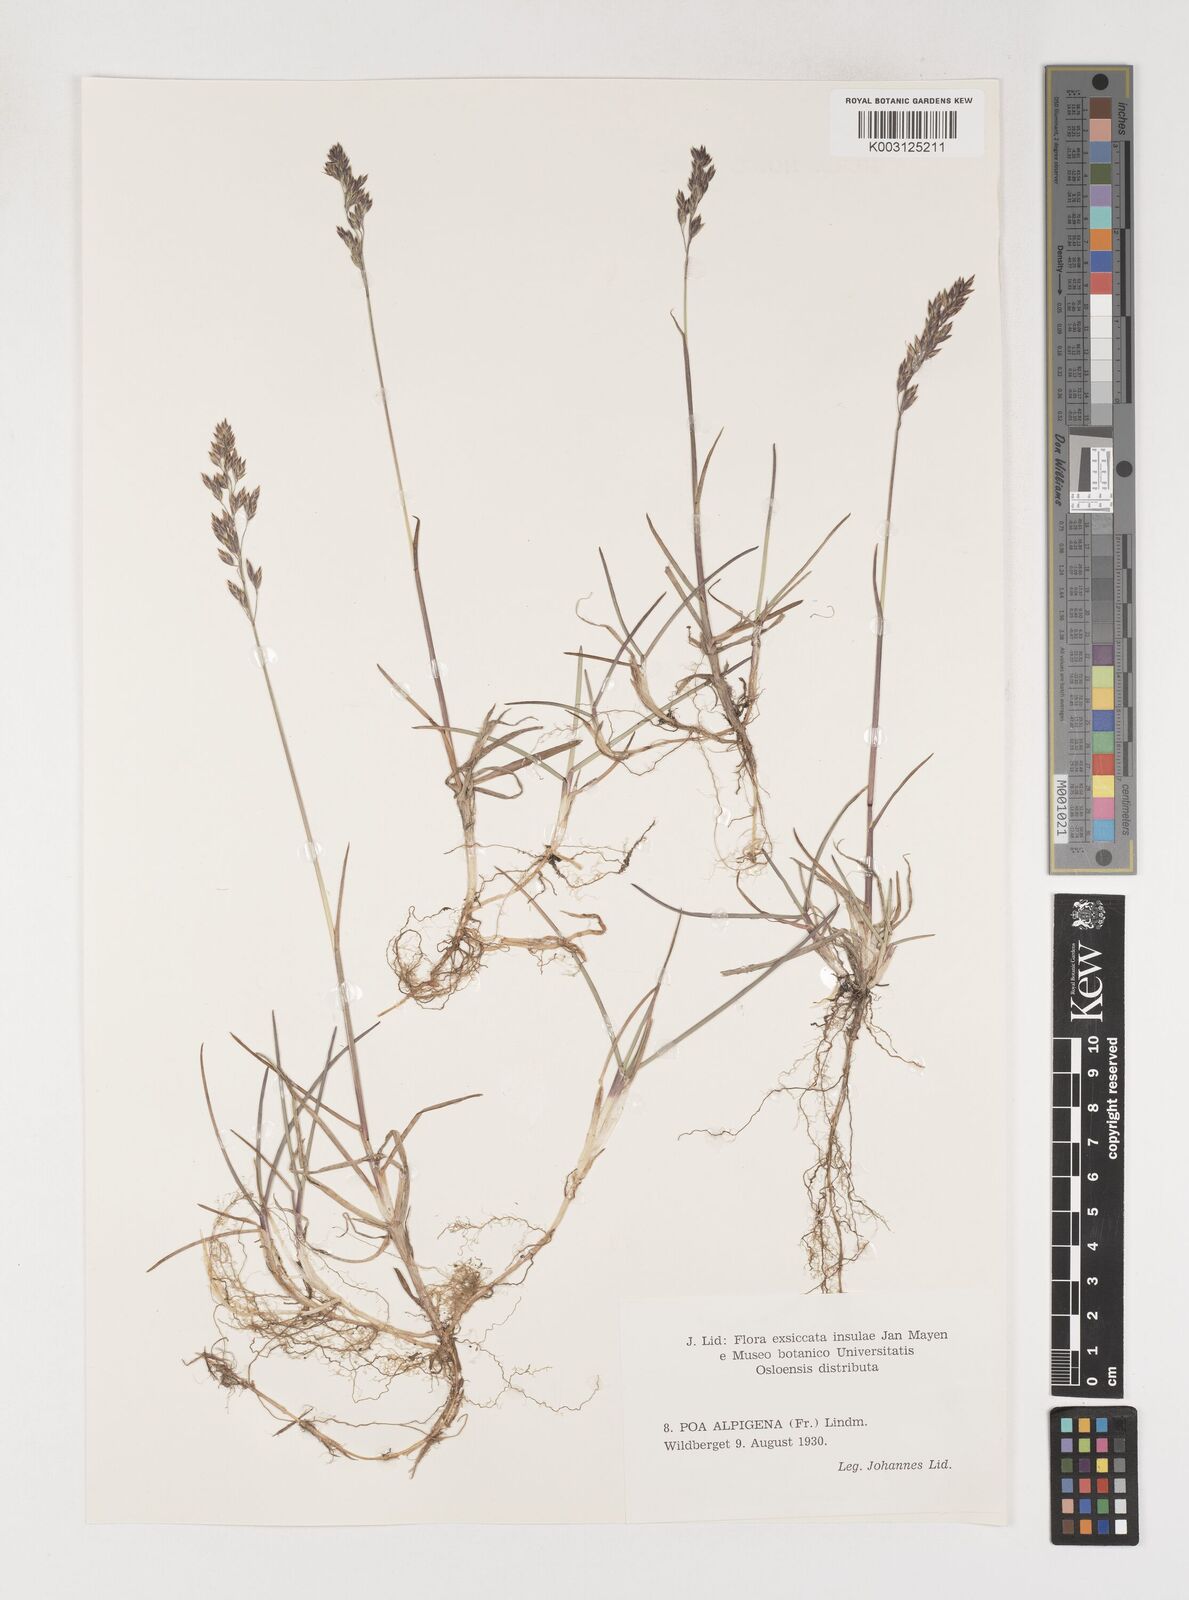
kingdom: Plantae
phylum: Tracheophyta
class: Liliopsida
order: Poales
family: Poaceae
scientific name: Poaceae
